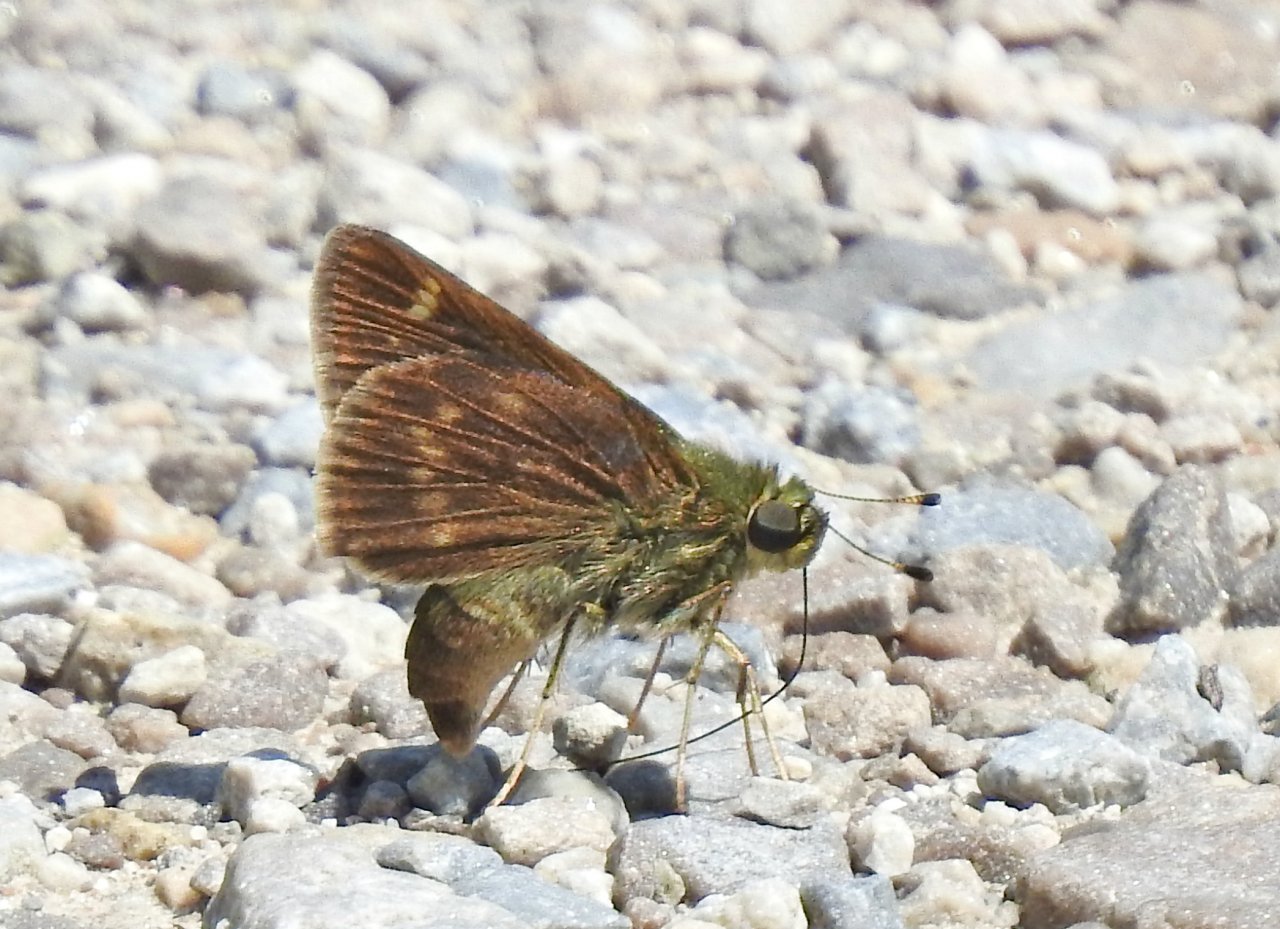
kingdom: Animalia
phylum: Arthropoda
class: Insecta
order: Lepidoptera
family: Hesperiidae
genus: Vernia
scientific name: Vernia verna
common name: Little Glassywing
